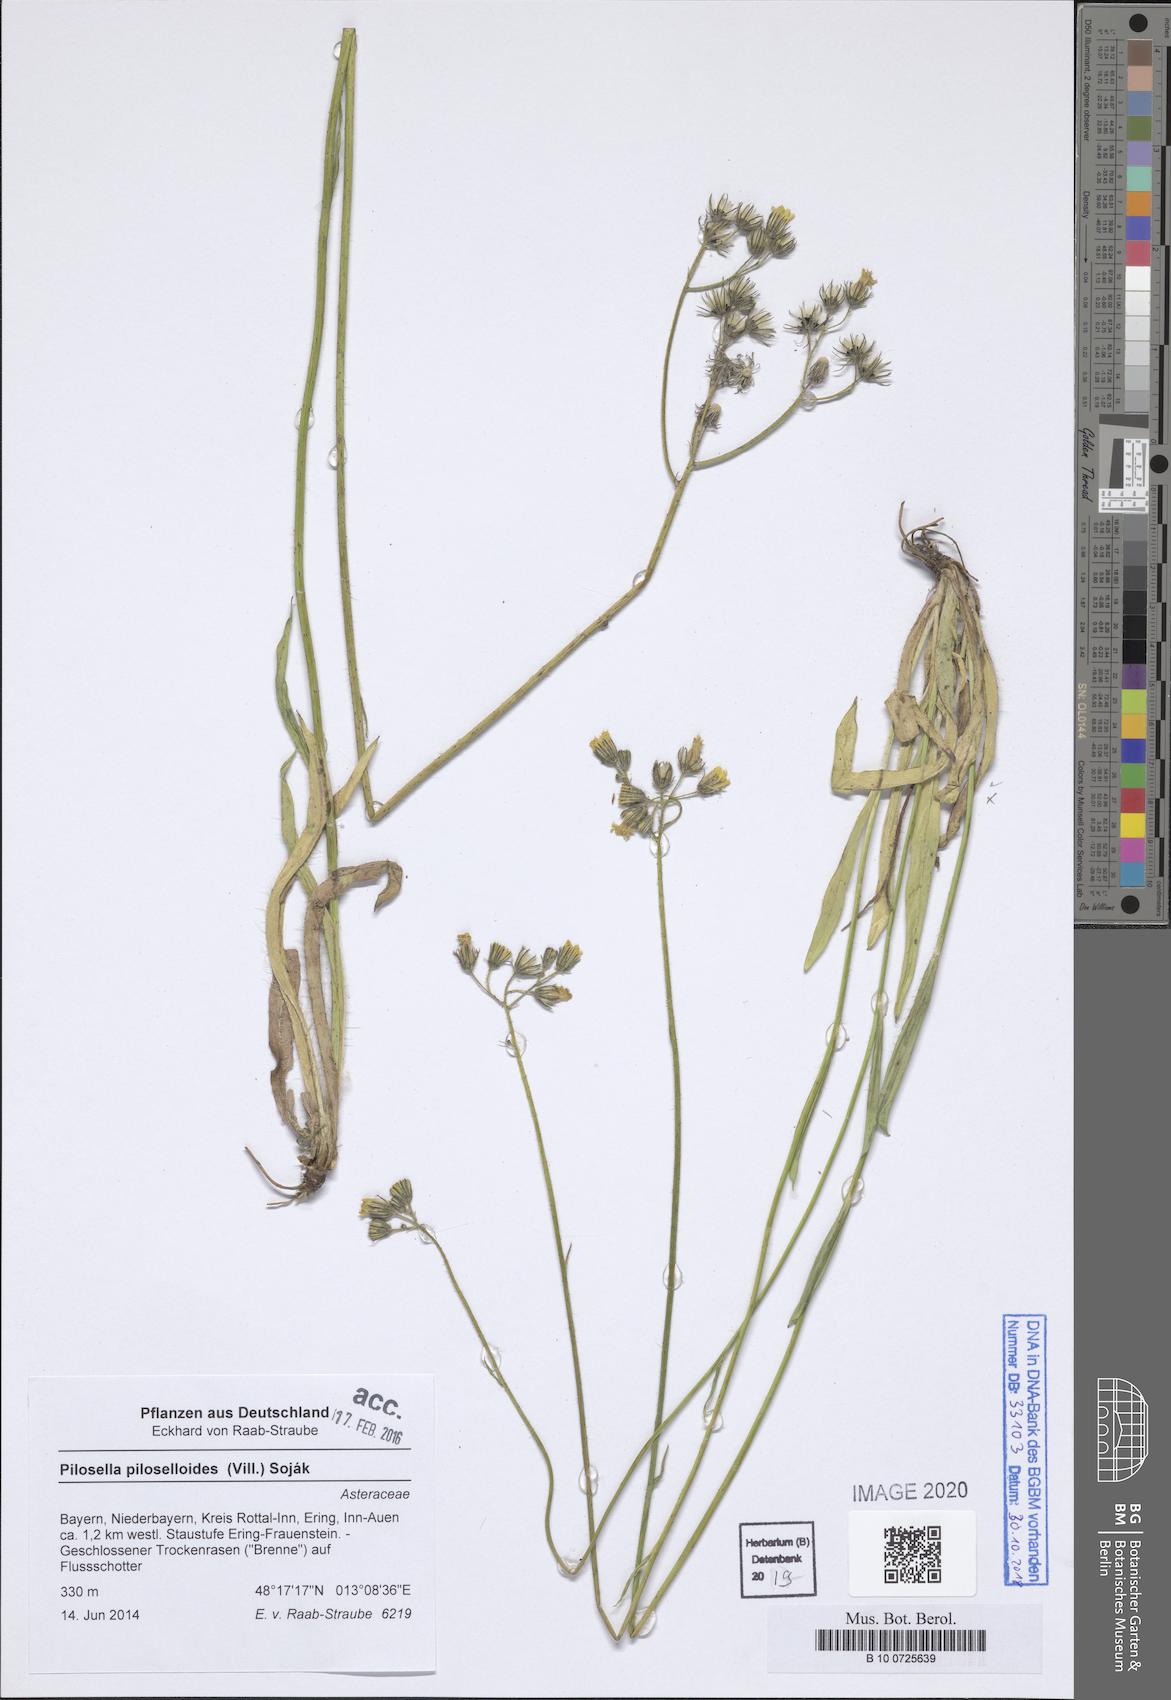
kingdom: Plantae
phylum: Tracheophyta
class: Magnoliopsida
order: Asterales
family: Asteraceae
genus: Pilosella
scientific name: Pilosella piloselloides
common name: Glaucous king-devil
